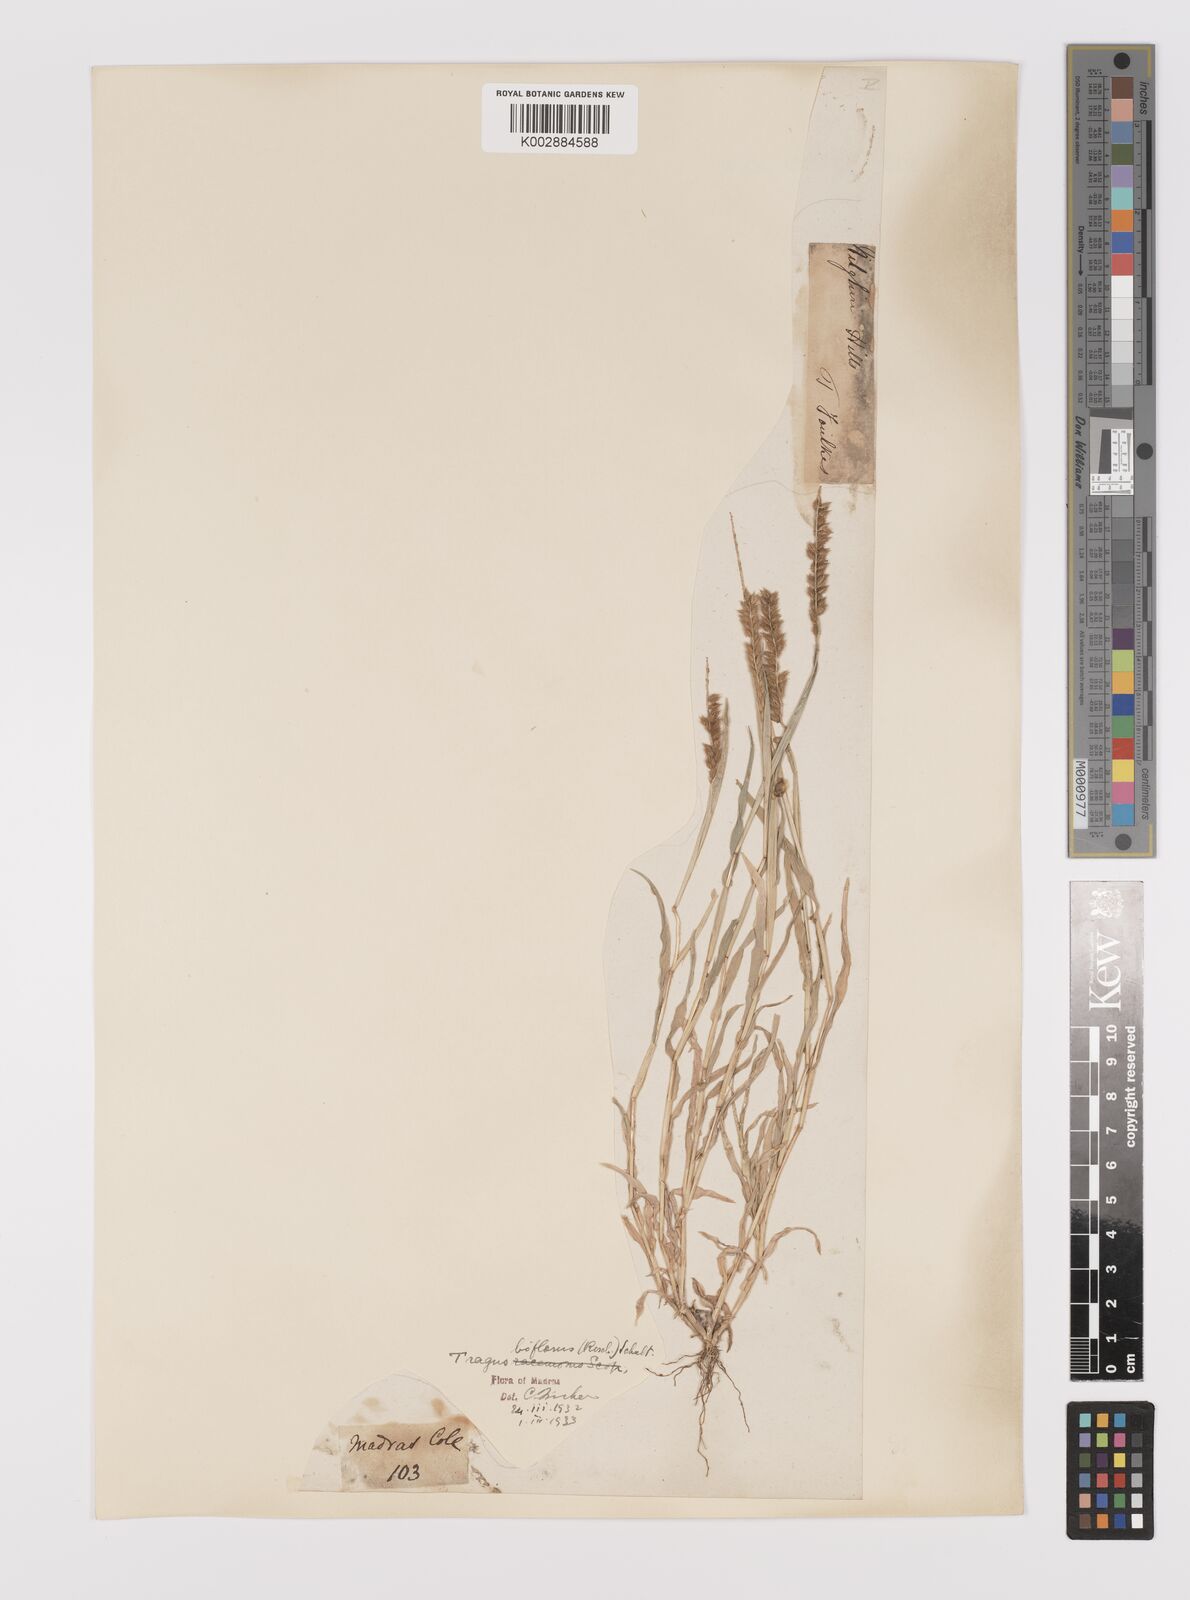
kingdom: Plantae
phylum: Tracheophyta
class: Liliopsida
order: Poales
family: Poaceae
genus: Tragus
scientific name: Tragus mongolorum
